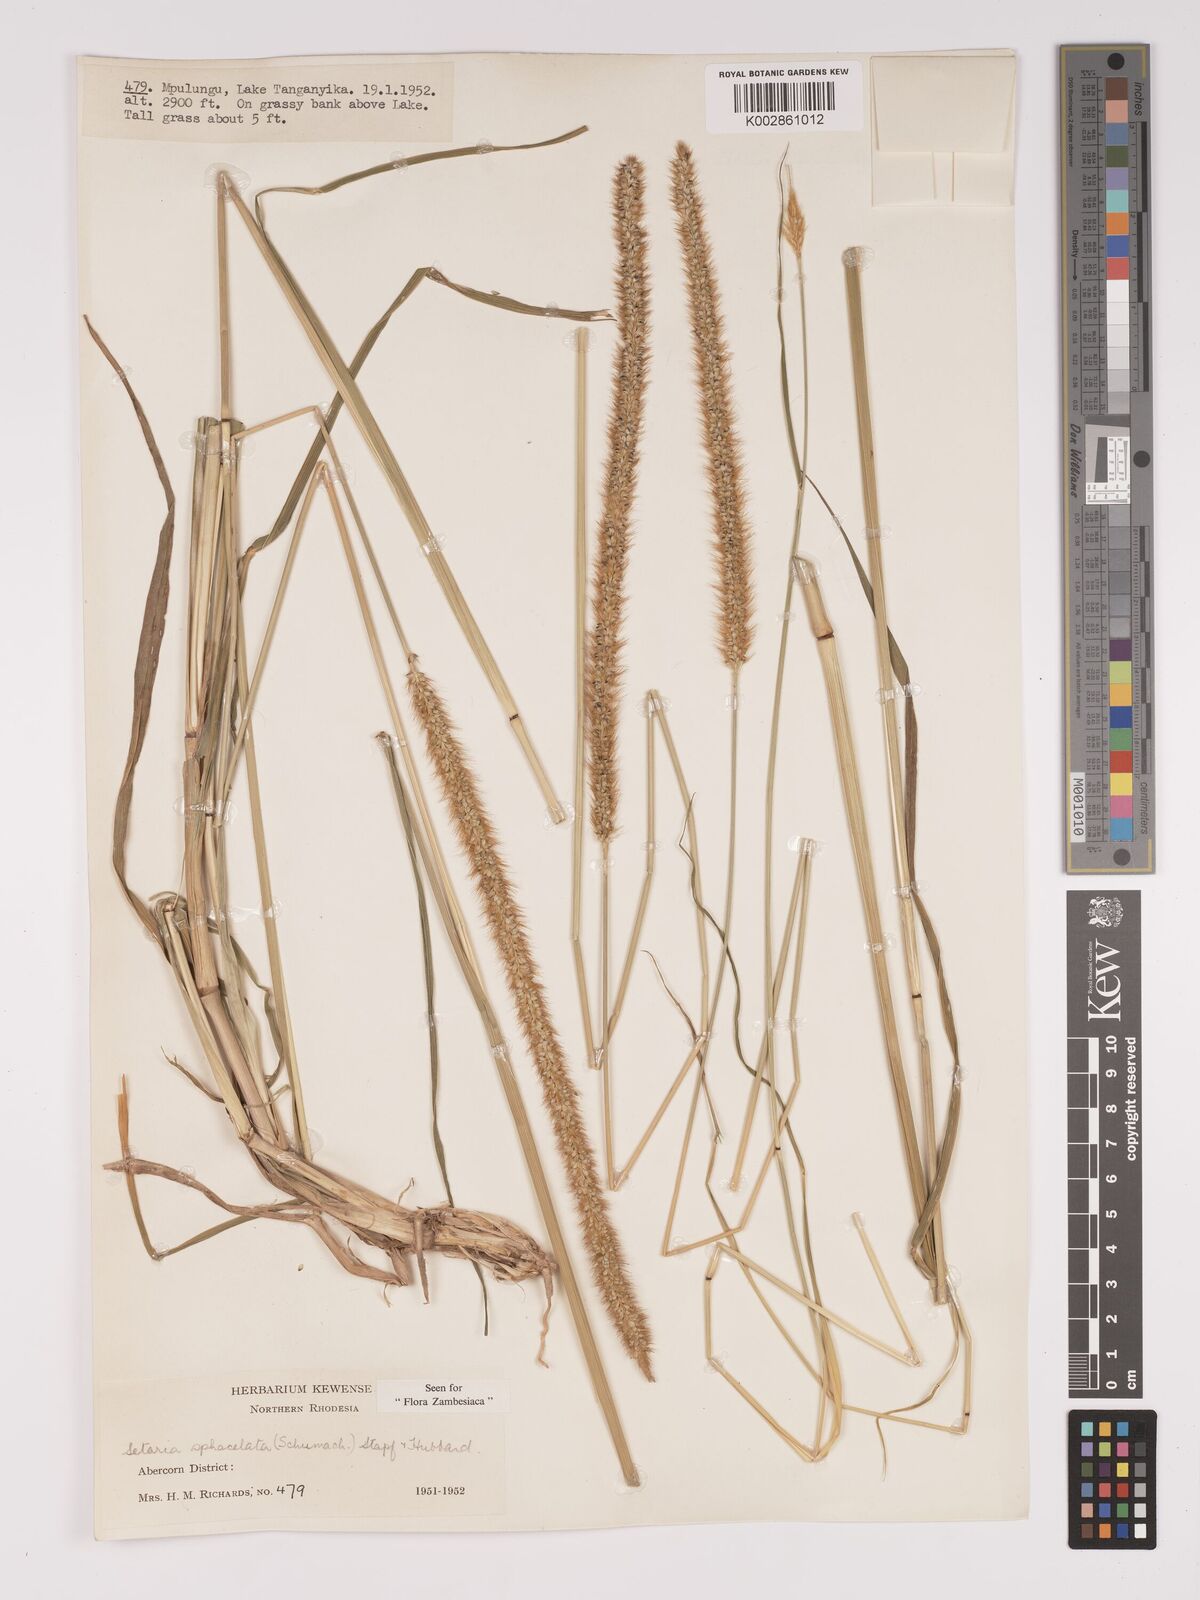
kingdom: Plantae
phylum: Tracheophyta
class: Liliopsida
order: Poales
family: Poaceae
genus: Setaria
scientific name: Setaria sphacelata
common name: African bristlegrass
